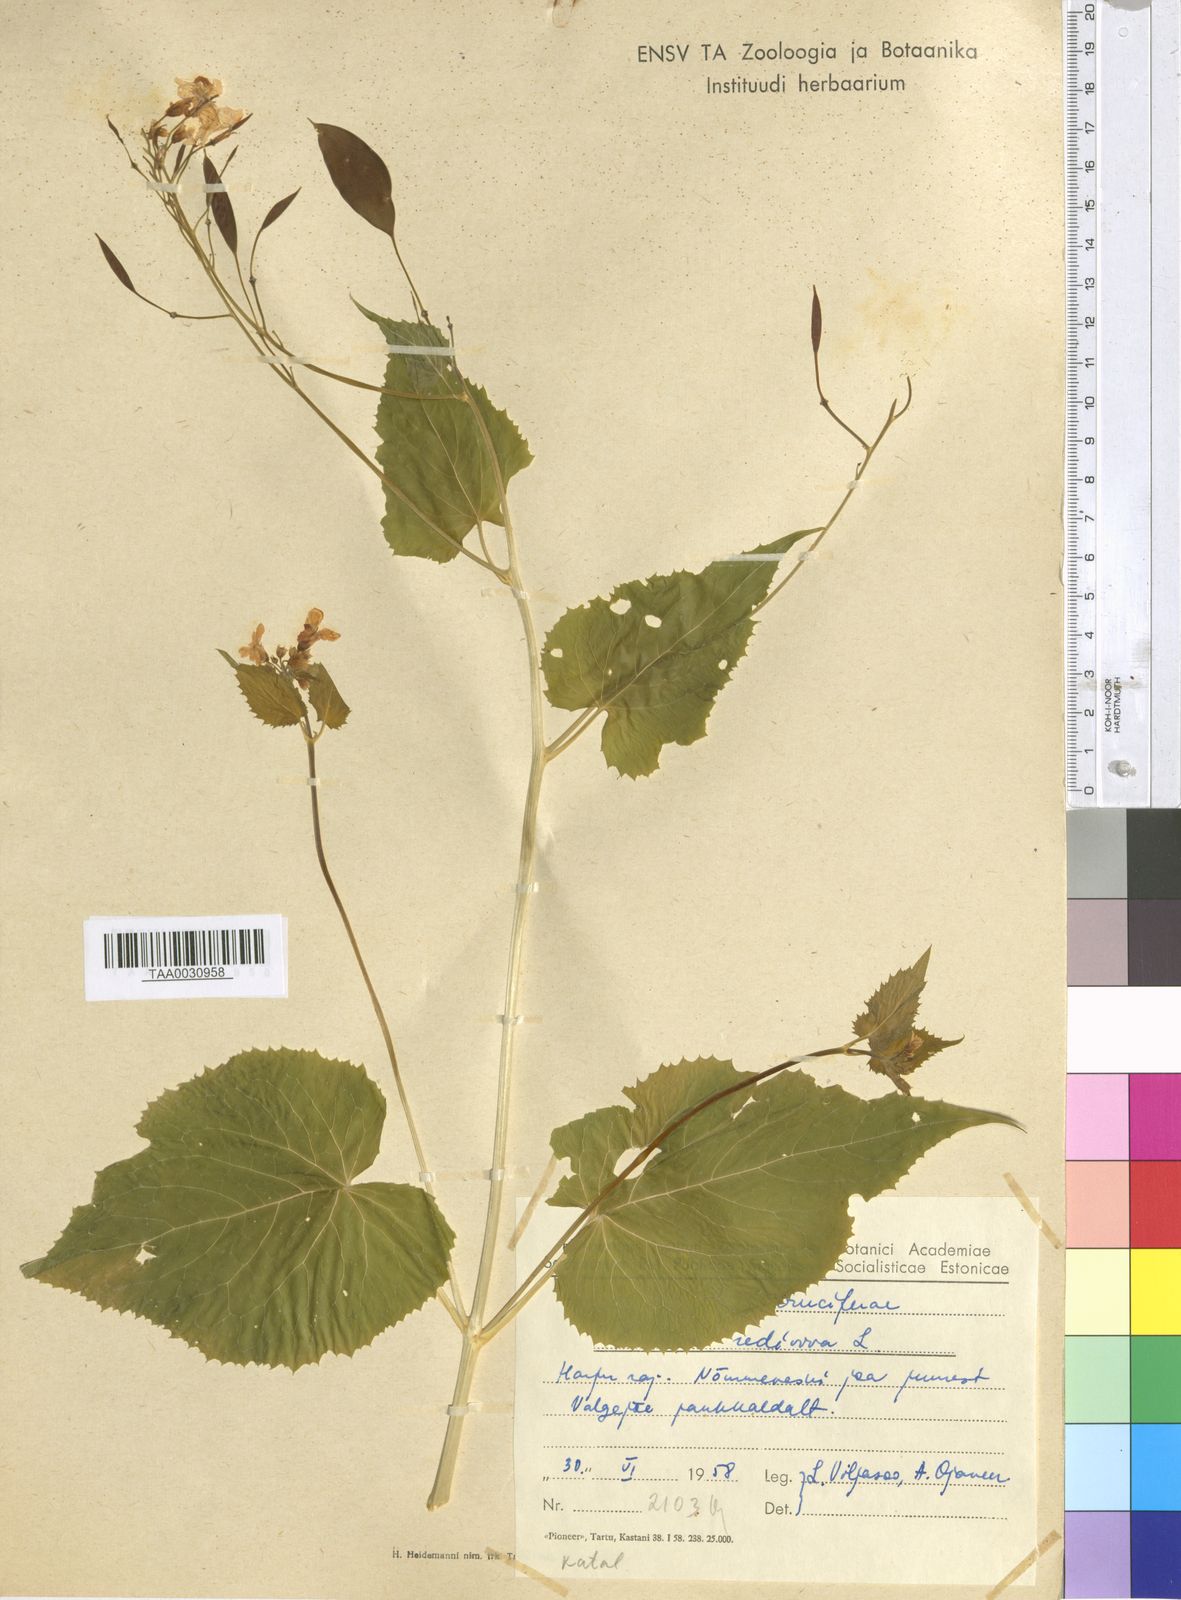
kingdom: Plantae
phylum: Tracheophyta
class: Magnoliopsida
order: Brassicales
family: Brassicaceae
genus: Lunaria
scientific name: Lunaria rediviva
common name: Perennial honesty
